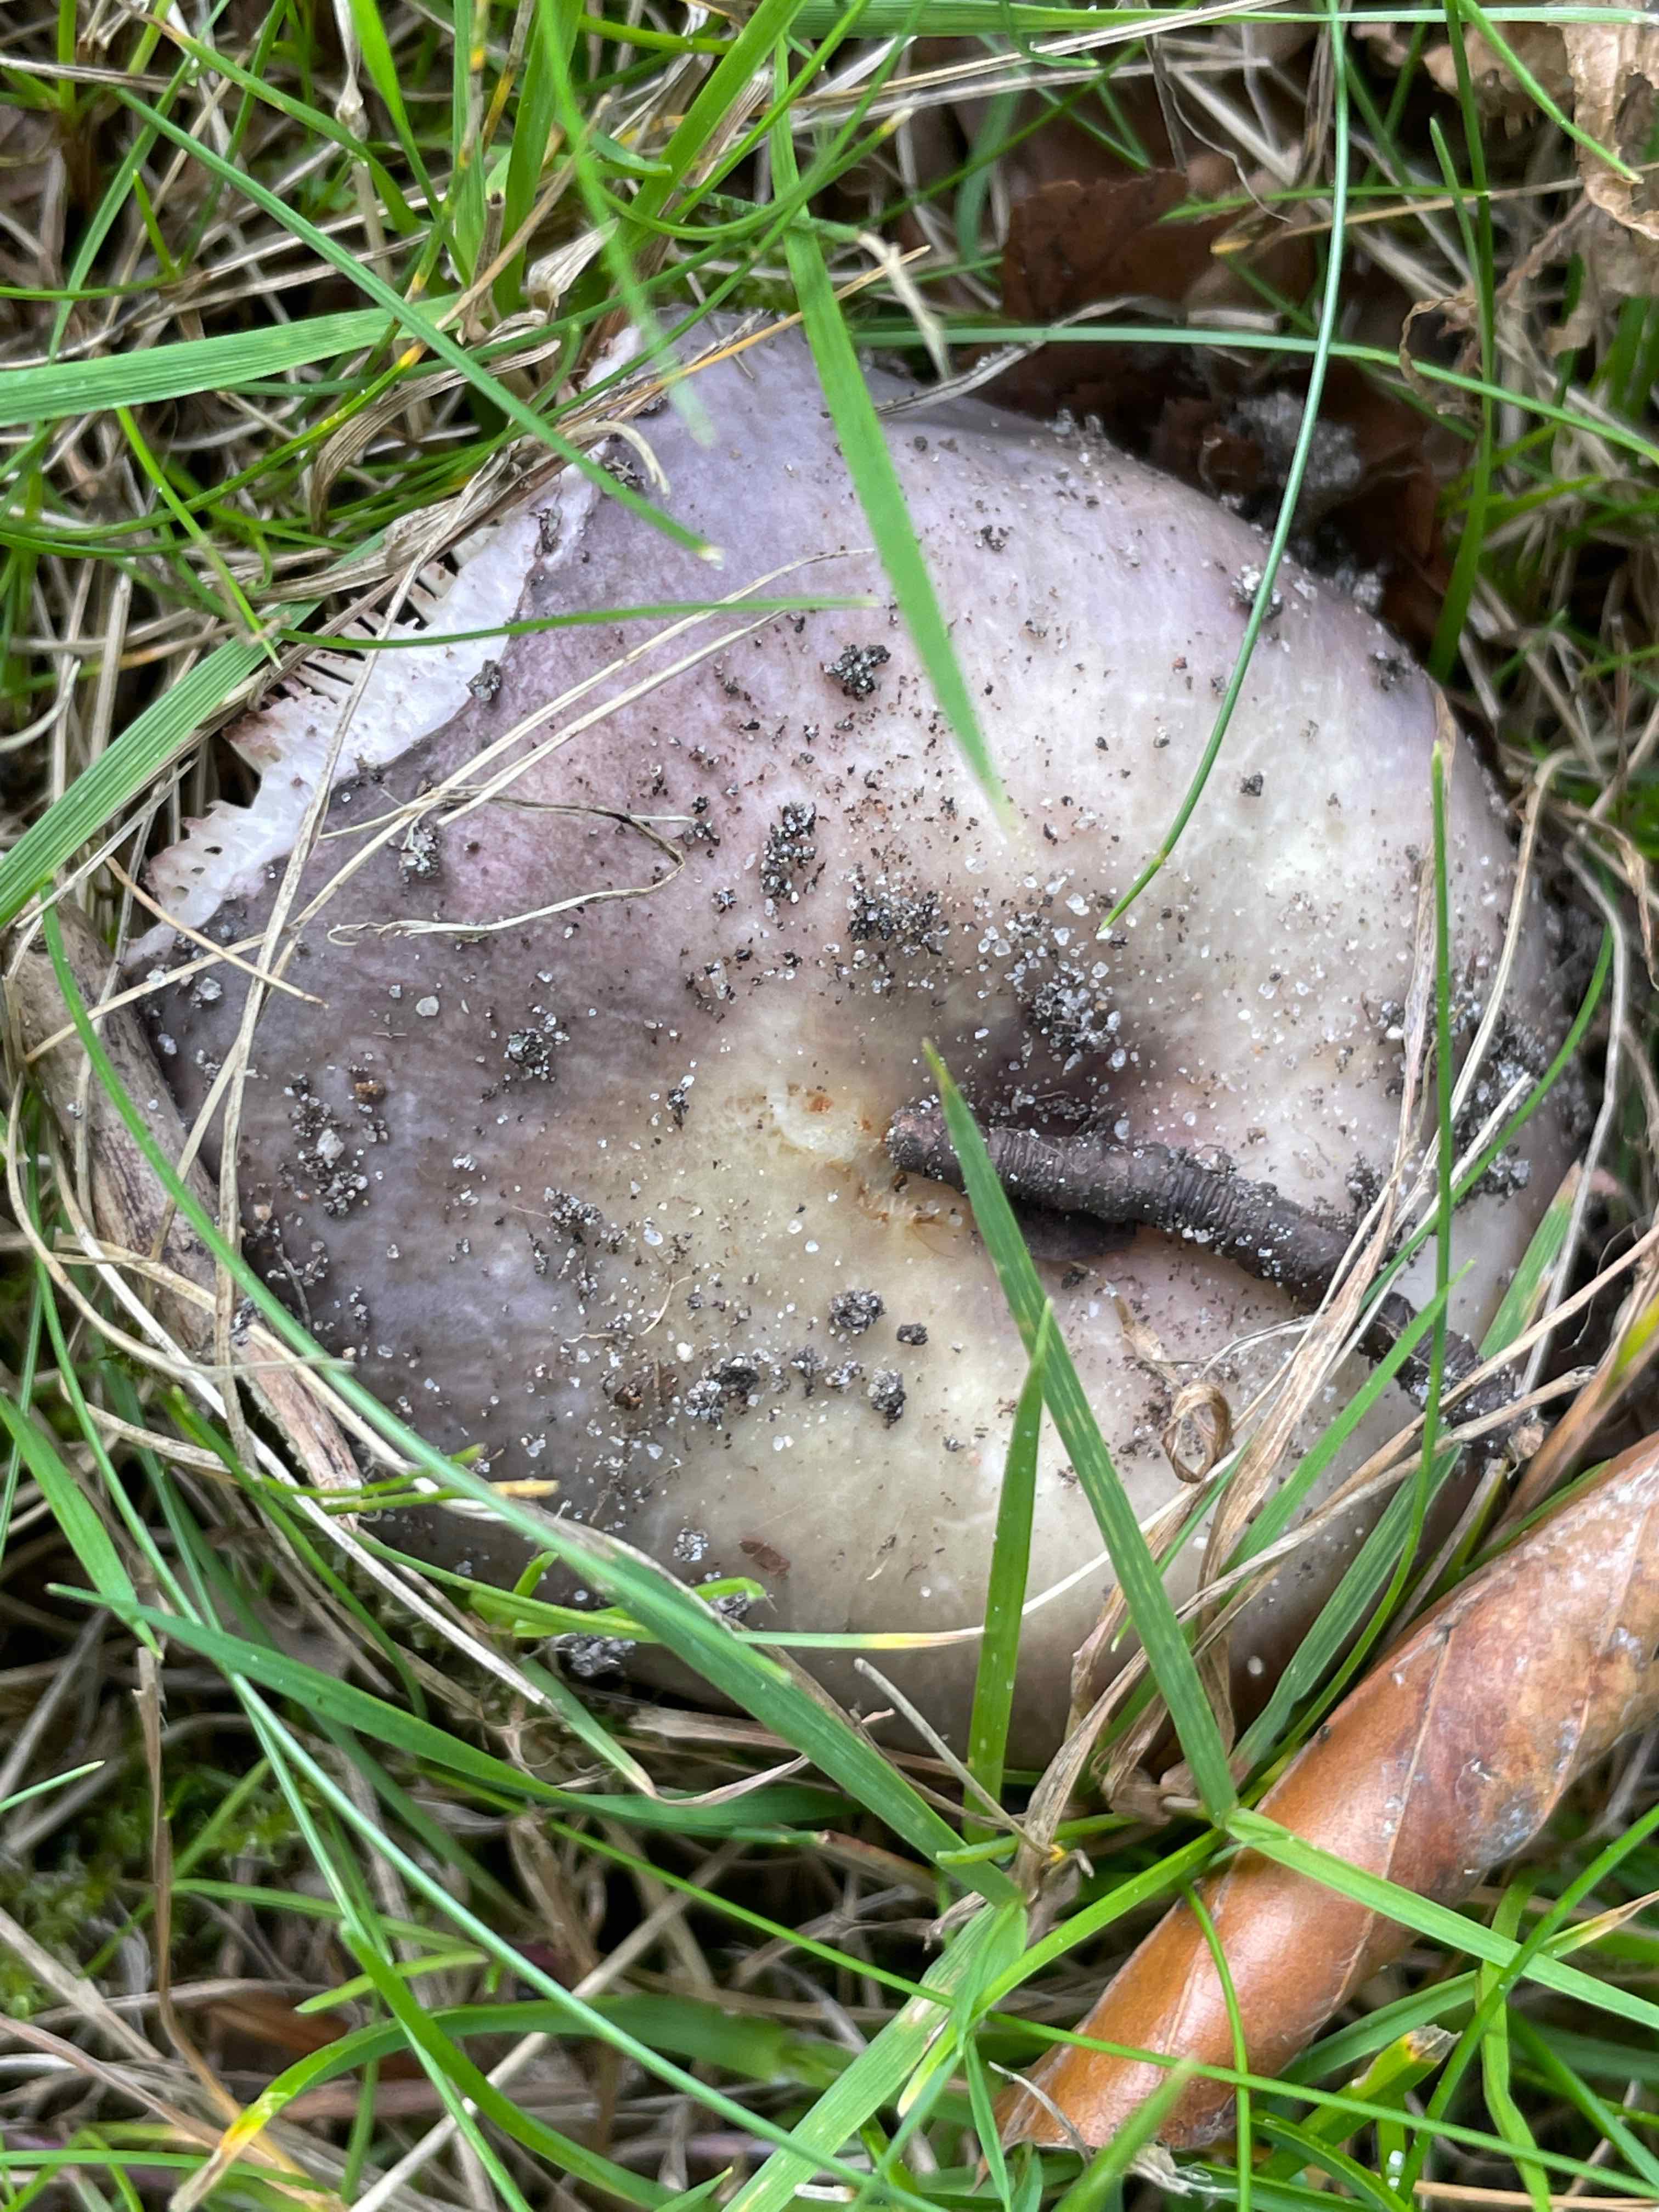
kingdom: Fungi
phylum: Basidiomycota
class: Agaricomycetes
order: Russulales
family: Russulaceae
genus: Russula
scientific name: Russula ionochlora
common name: violetgrøn skørhat
